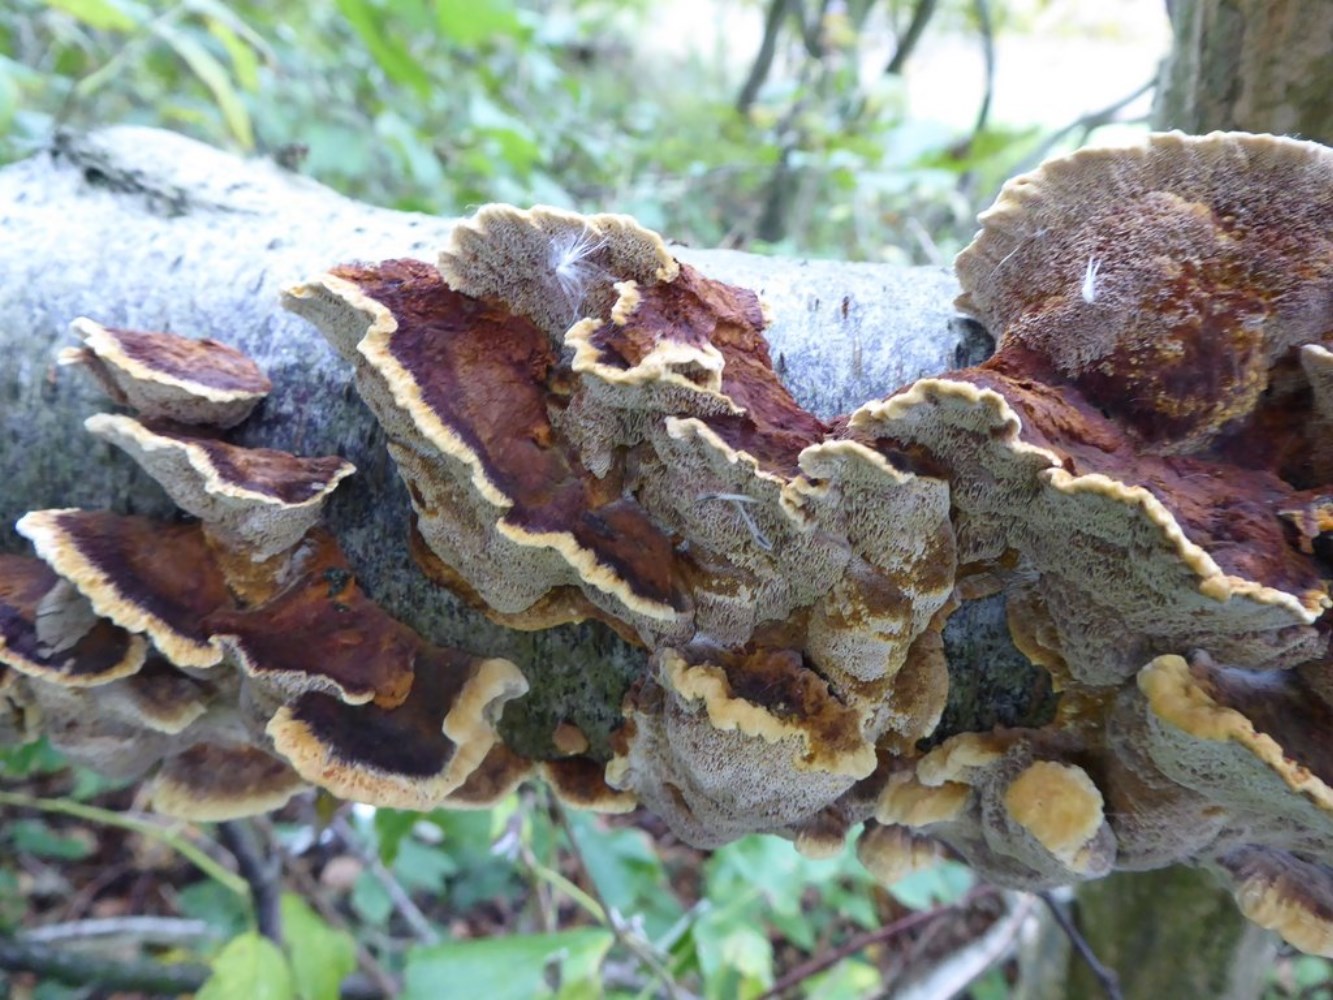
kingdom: Fungi
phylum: Basidiomycota
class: Agaricomycetes
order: Hymenochaetales
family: Hymenochaetaceae
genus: Xanthoporia
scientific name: Xanthoporia radiata
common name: elle-spejlporesvamp
